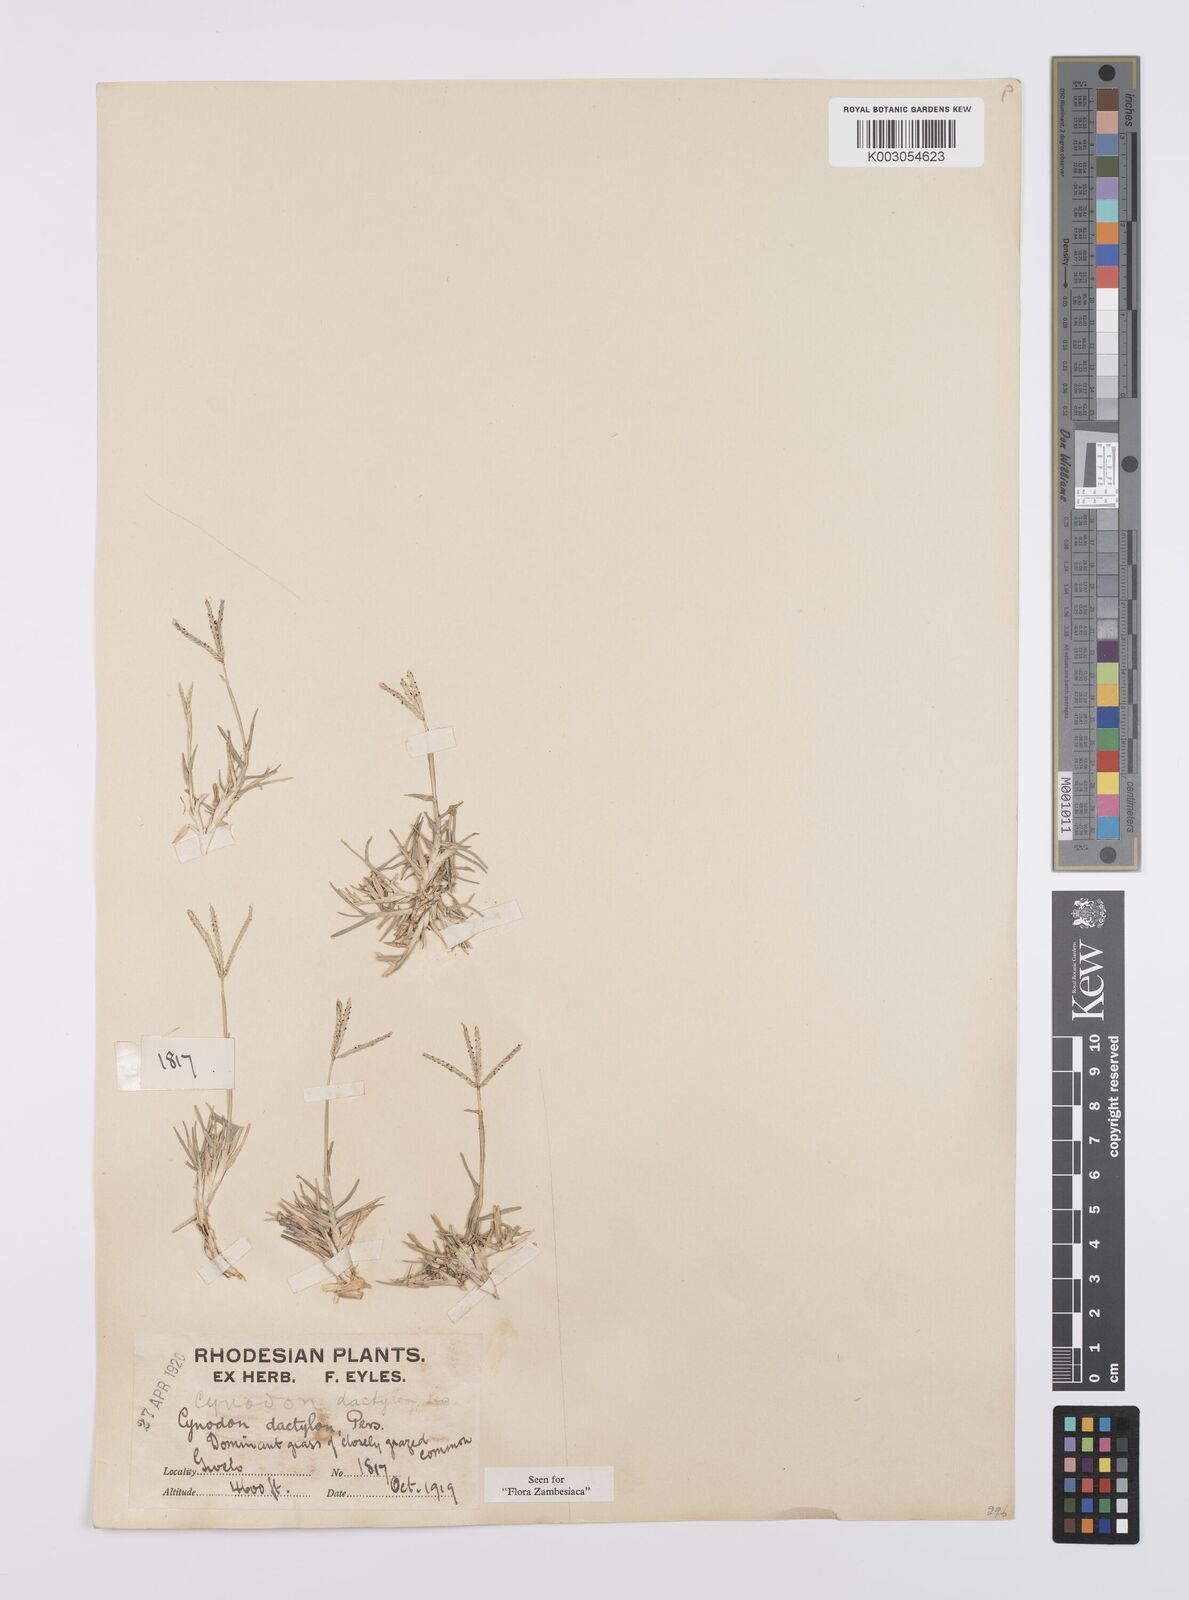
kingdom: Plantae
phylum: Tracheophyta
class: Liliopsida
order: Poales
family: Poaceae
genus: Cynodon
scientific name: Cynodon dactylon
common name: Bermuda grass
